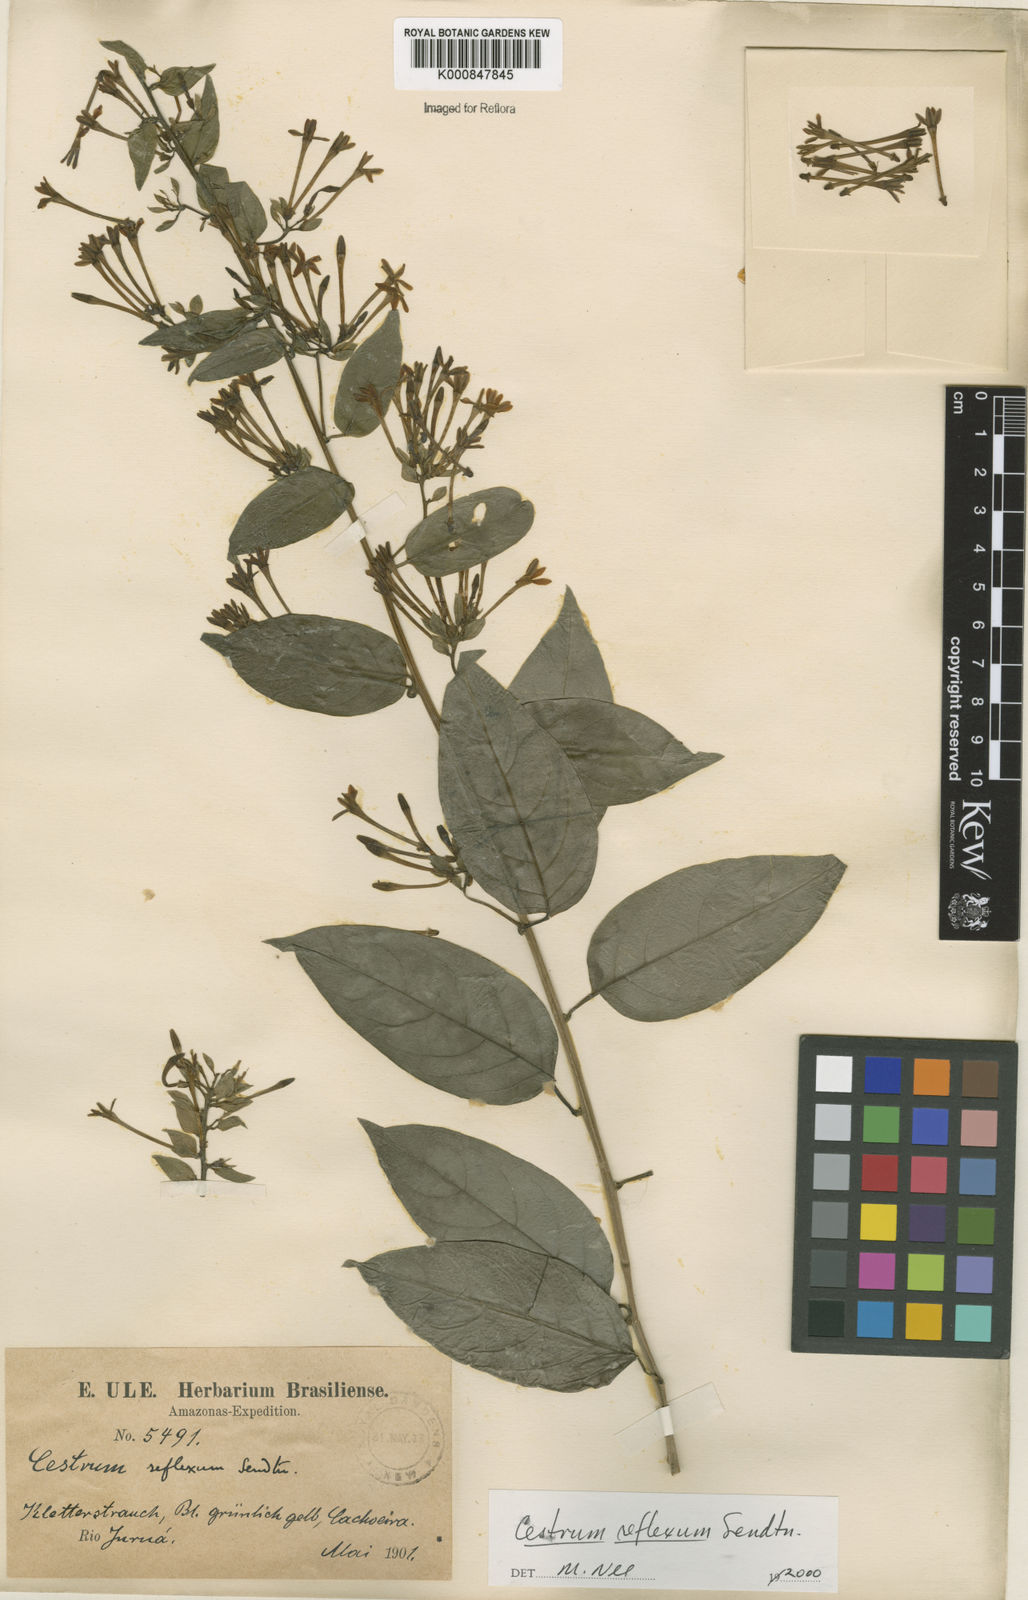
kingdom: Plantae
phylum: Tracheophyta
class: Magnoliopsida
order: Solanales
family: Solanaceae
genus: Cestrum
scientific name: Cestrum reflexum
